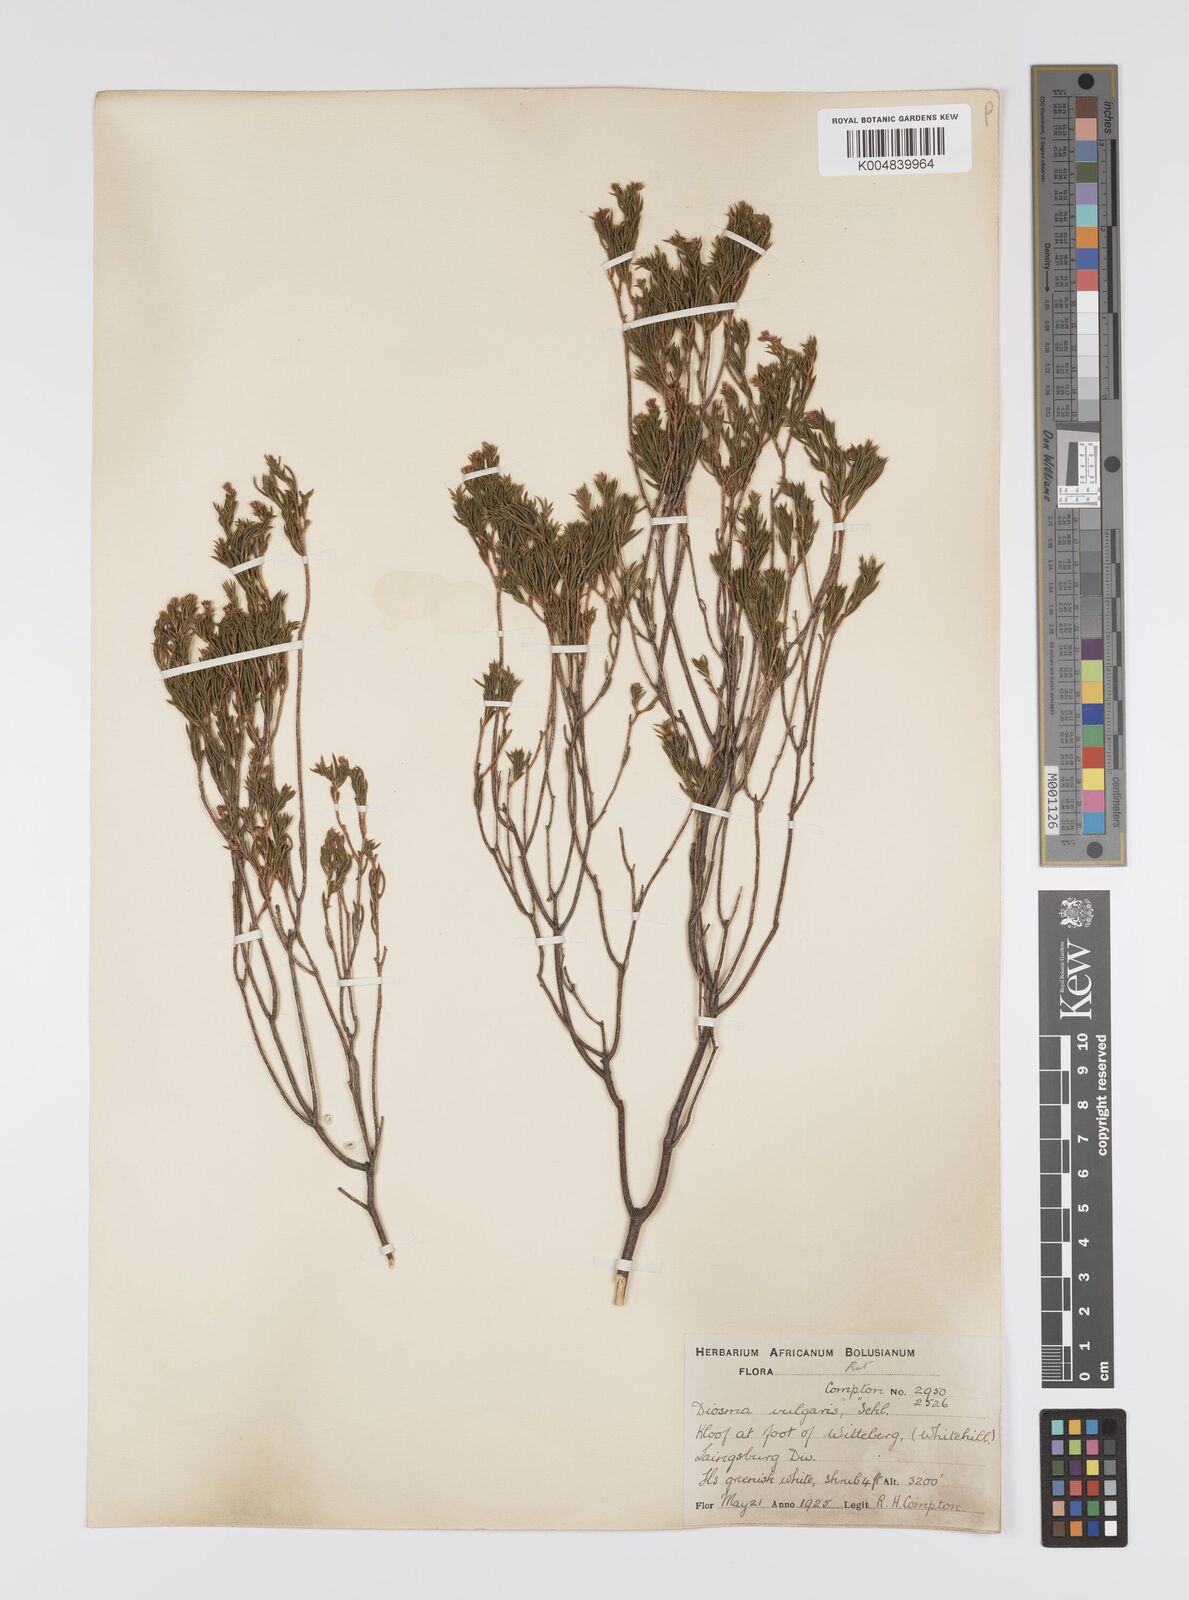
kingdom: Plantae
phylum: Tracheophyta
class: Magnoliopsida
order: Sapindales
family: Rutaceae
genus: Diosma
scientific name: Diosma acmaeophylla
